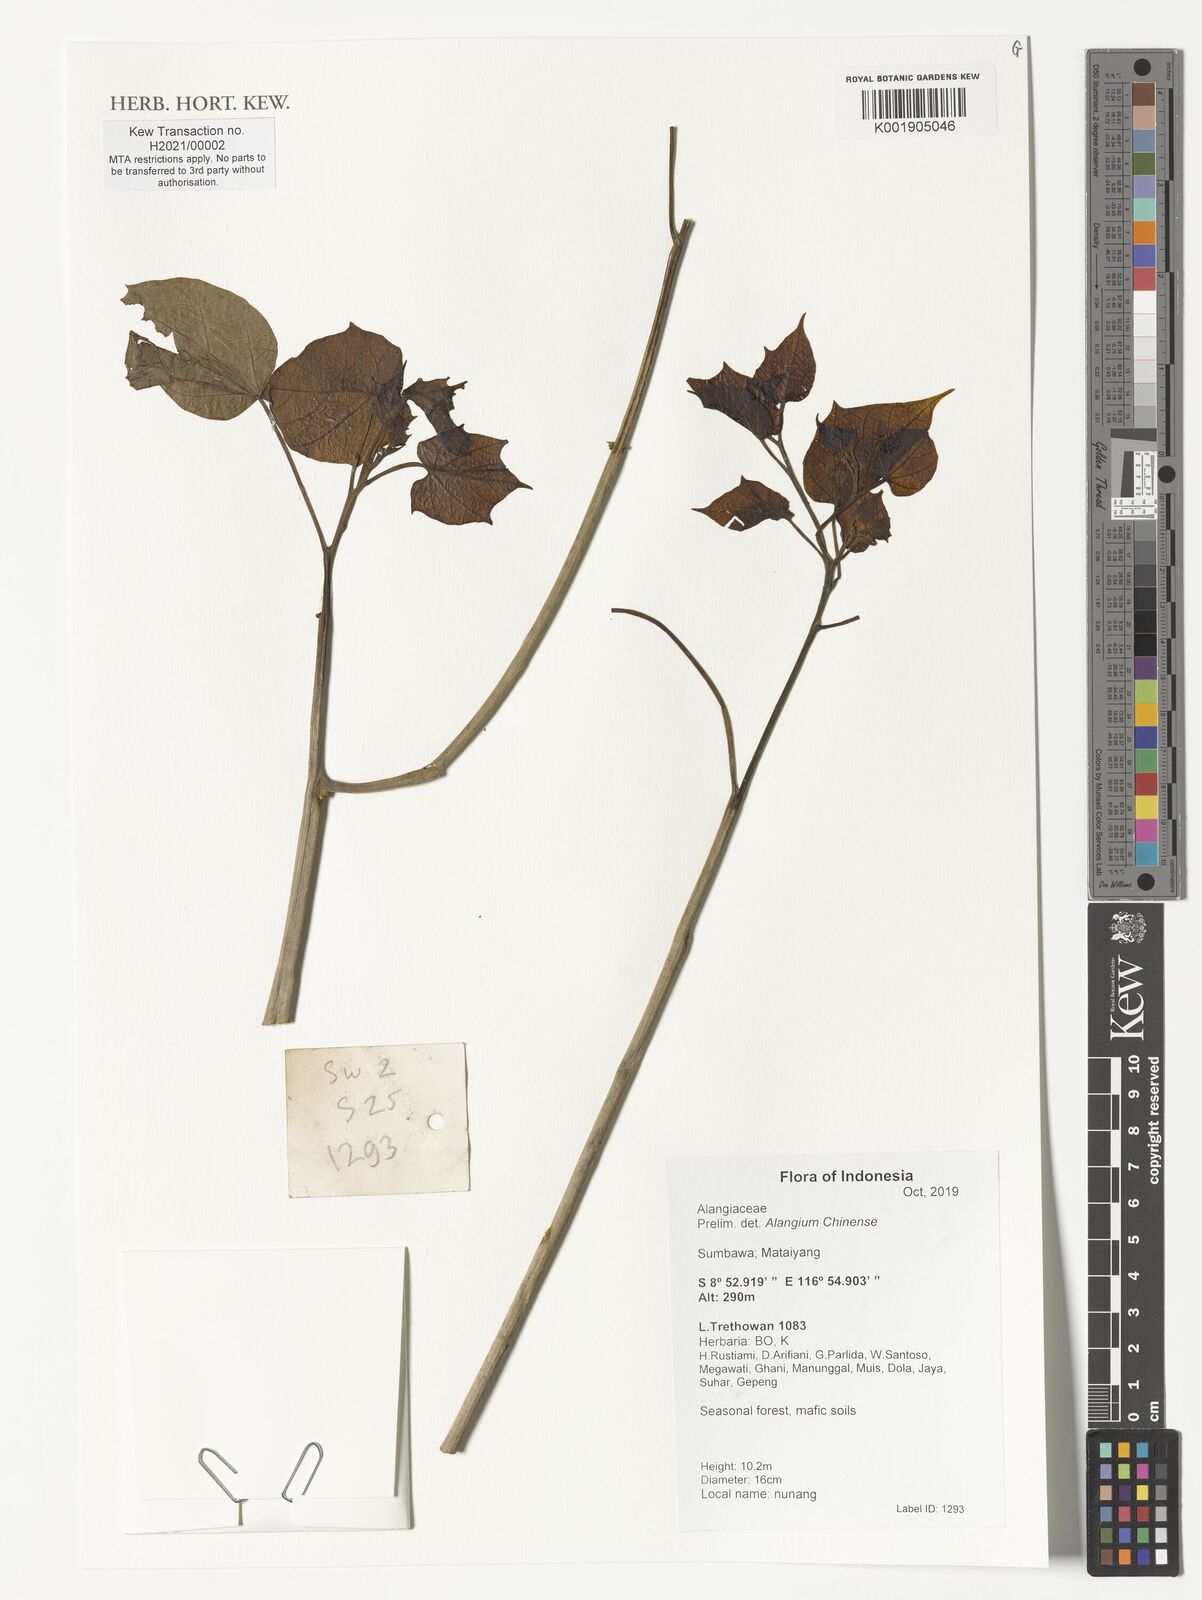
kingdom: Plantae
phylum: Tracheophyta
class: Magnoliopsida
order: Cornales
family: Cornaceae
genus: Alangium
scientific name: Alangium chinense
